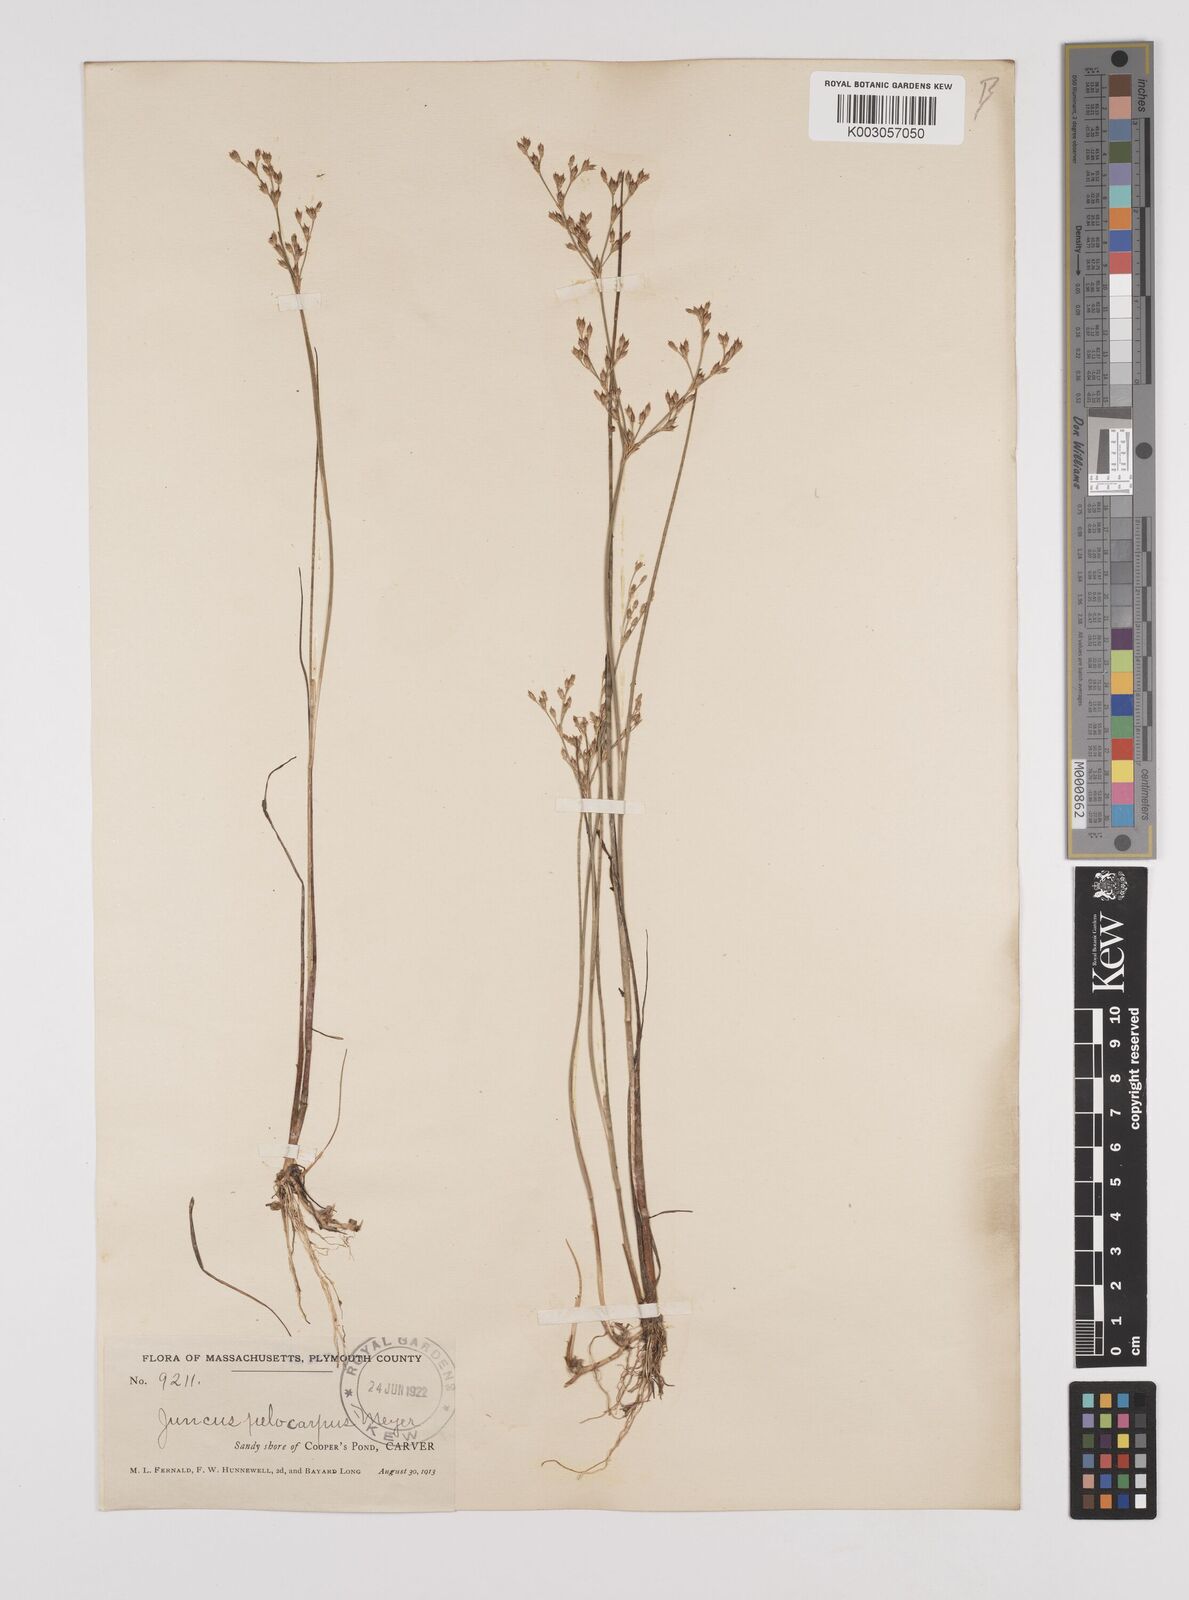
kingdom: Plantae
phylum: Tracheophyta
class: Liliopsida
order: Poales
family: Juncaceae
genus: Juncus
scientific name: Juncus pelocarpus
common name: Brown-fruited rush
